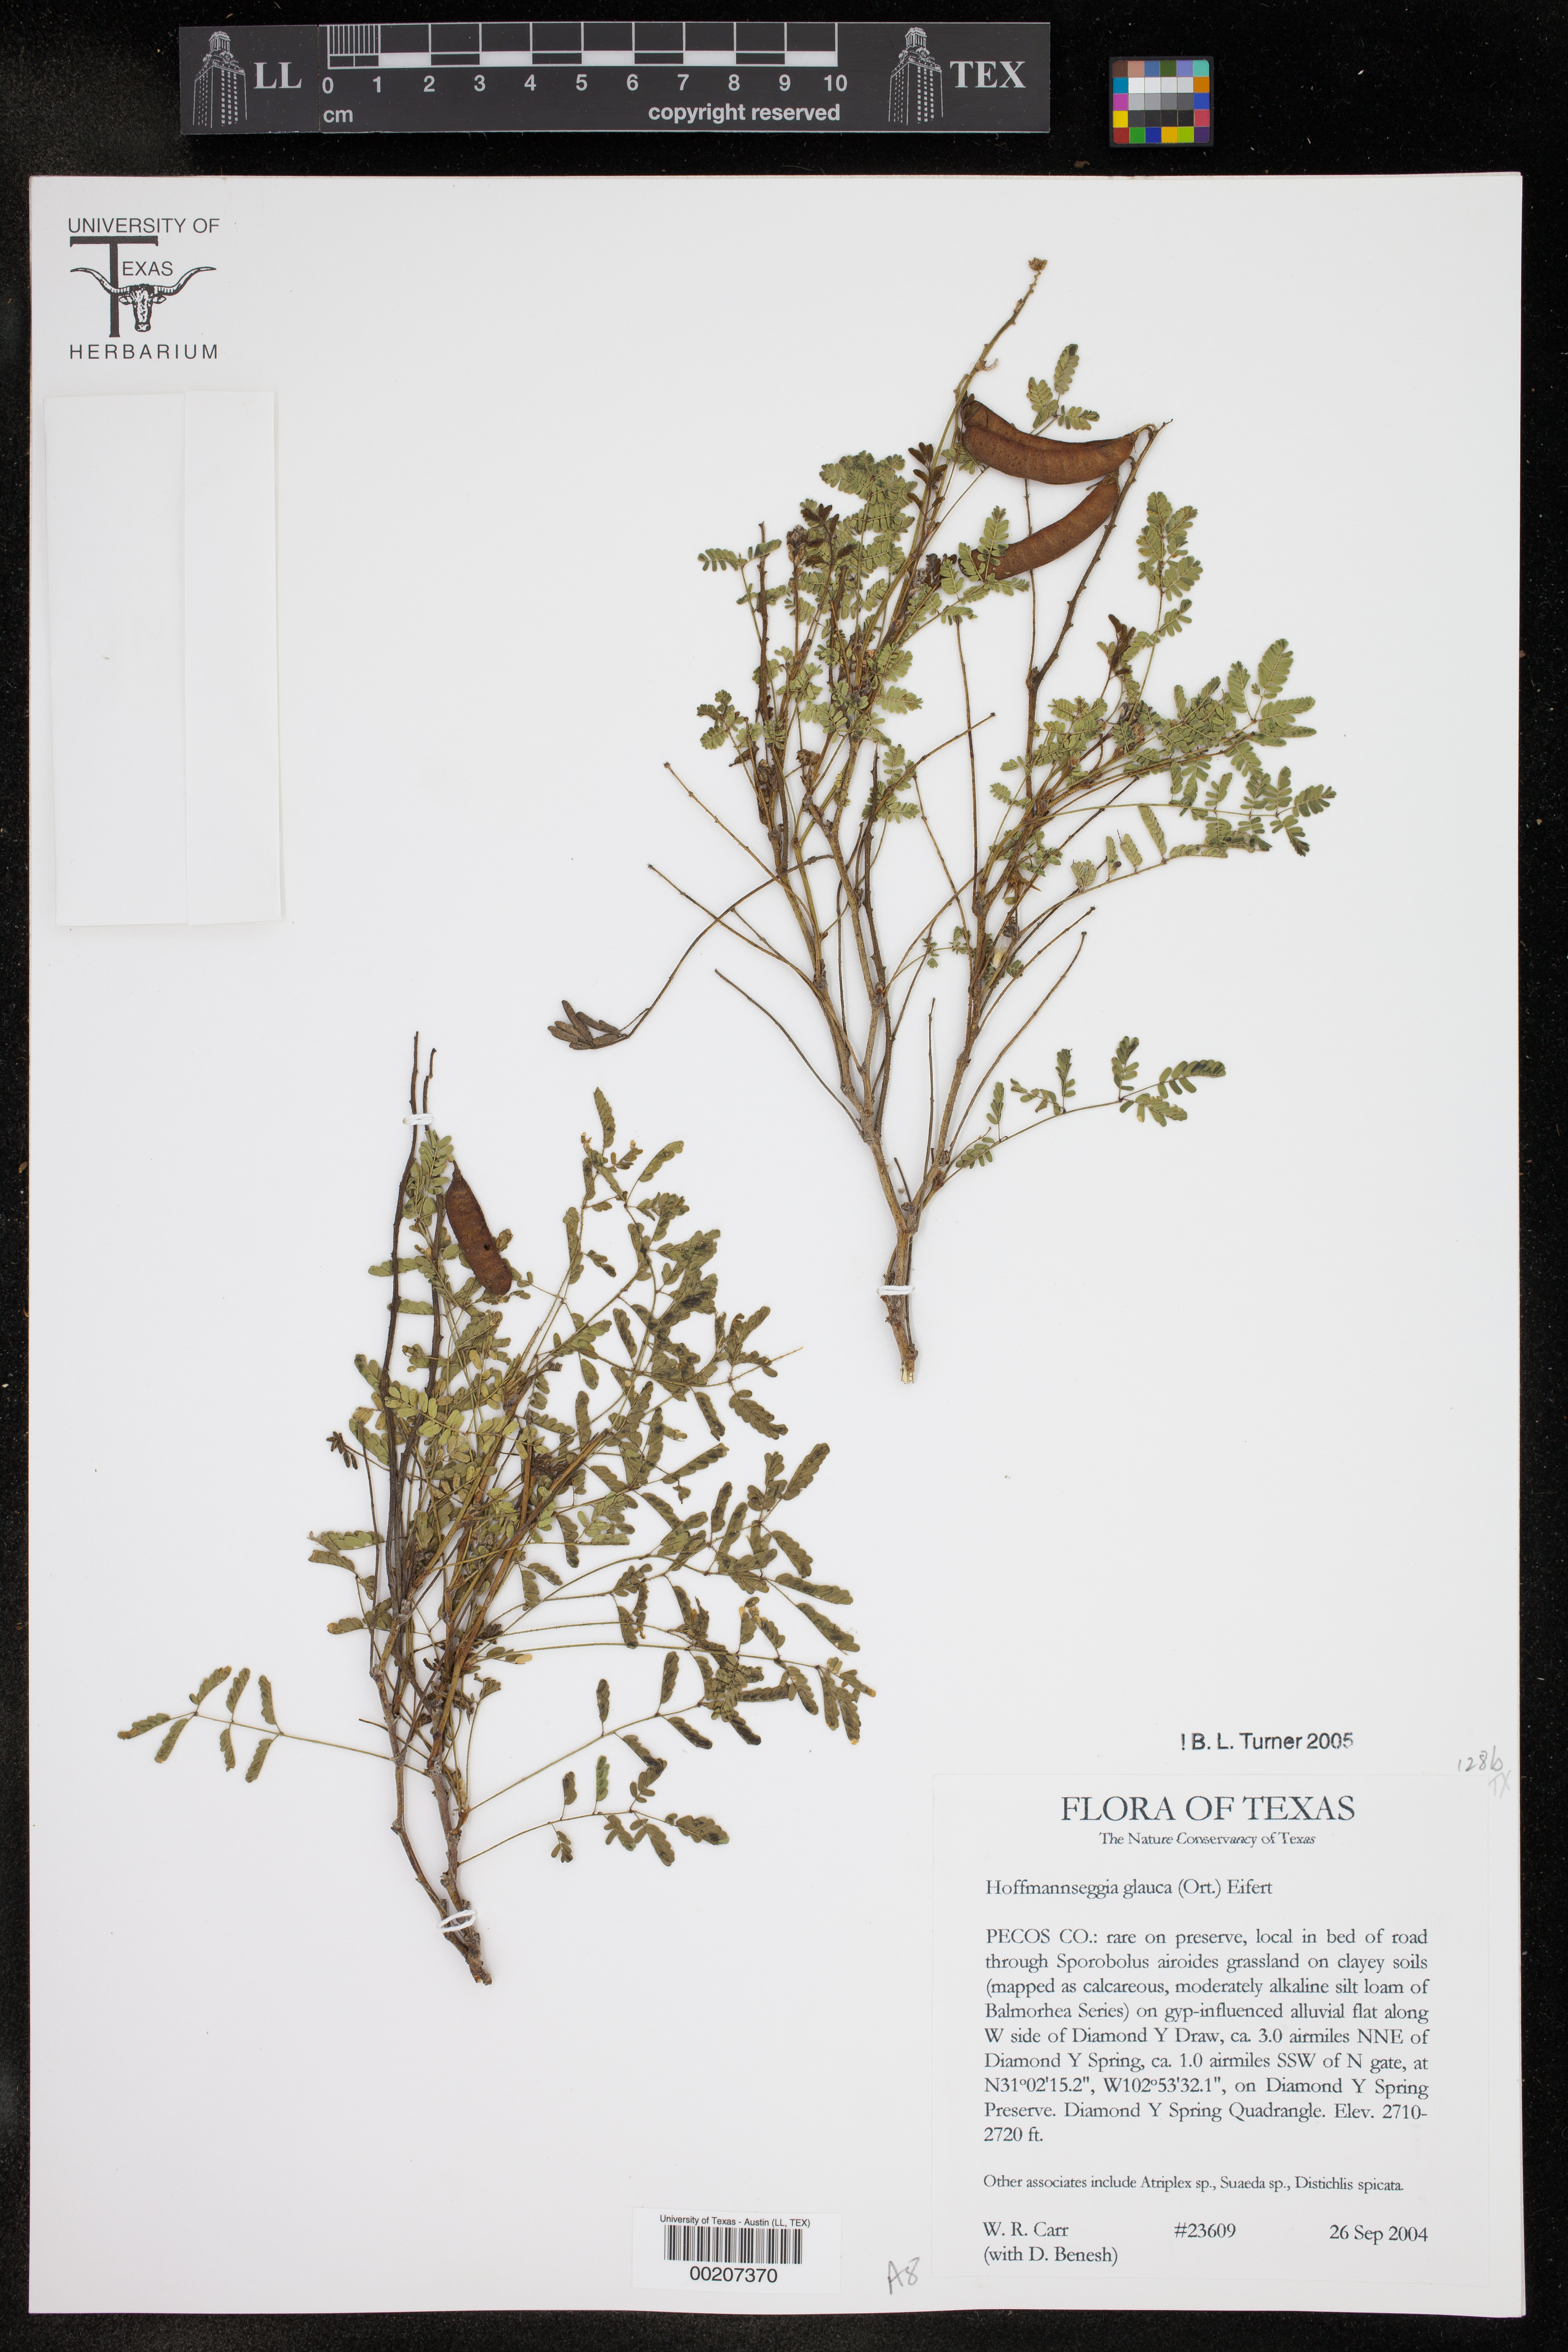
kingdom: Plantae
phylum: Tracheophyta
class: Magnoliopsida
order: Fabales
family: Fabaceae
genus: Hoffmannseggia
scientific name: Hoffmannseggia glauca
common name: Pignut
